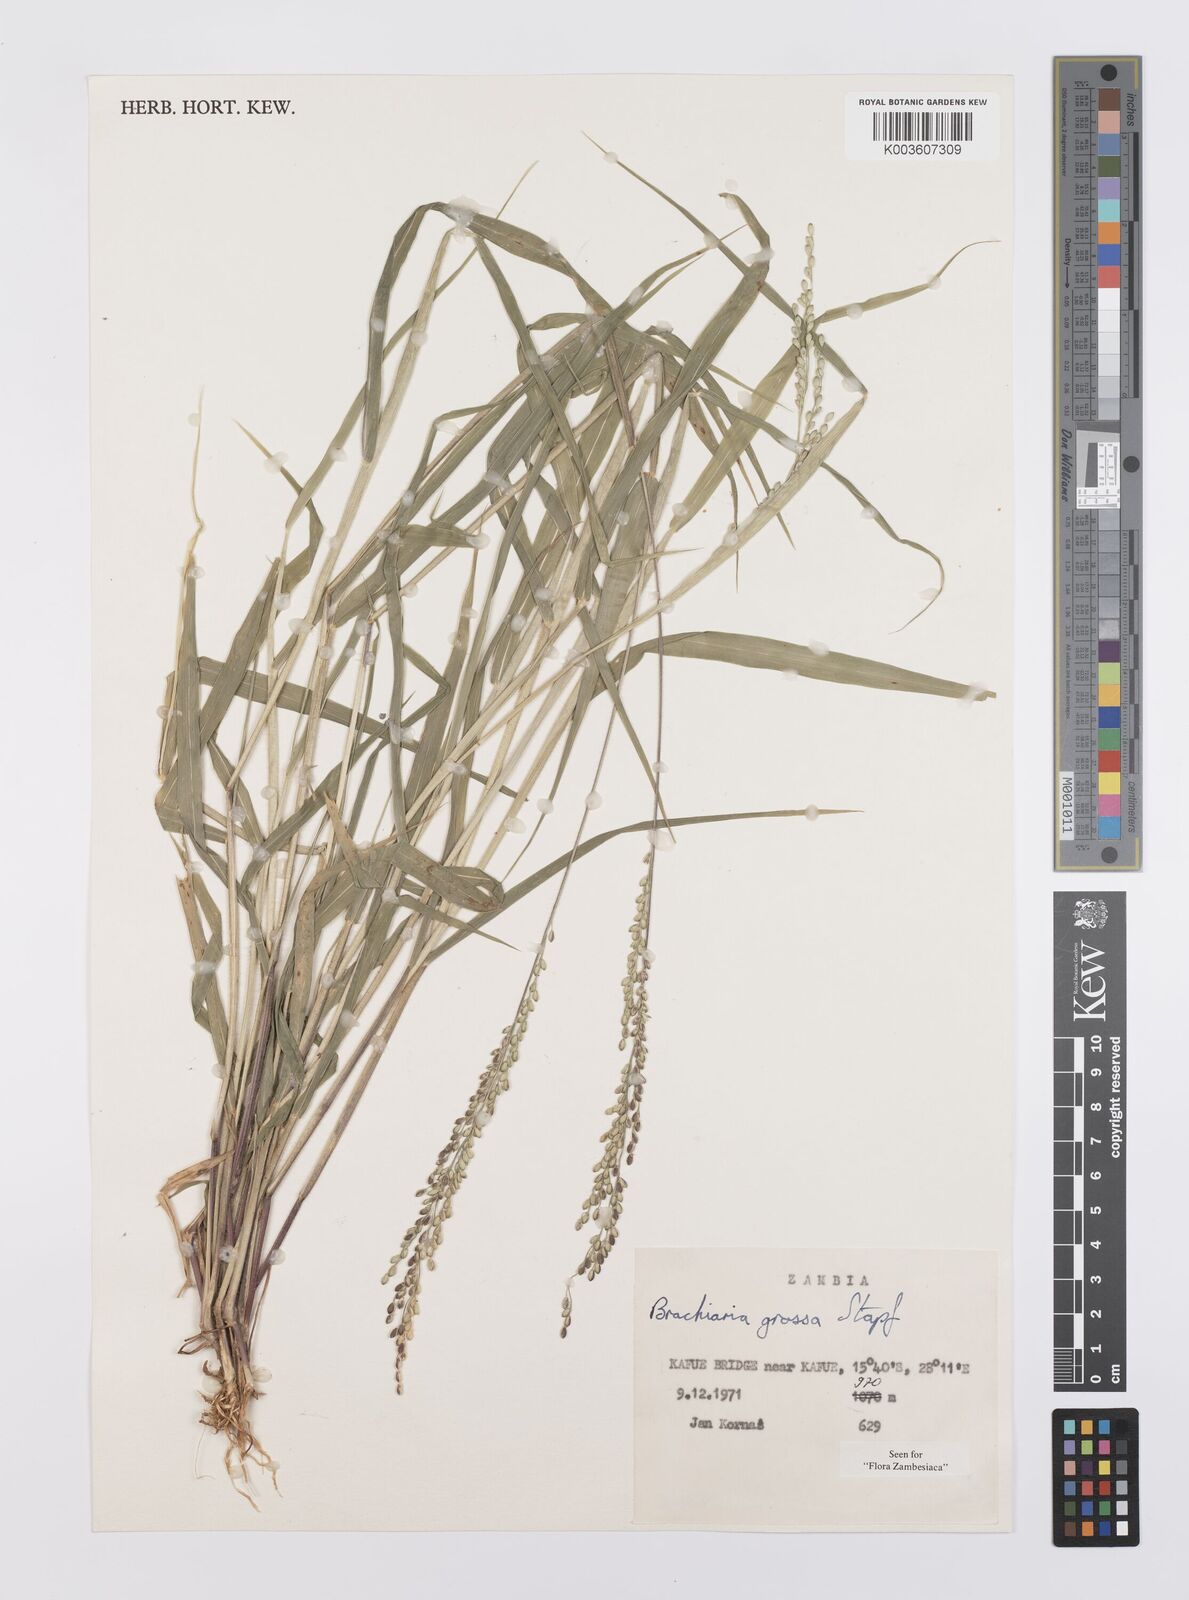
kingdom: Plantae
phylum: Tracheophyta
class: Liliopsida
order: Poales
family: Poaceae
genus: Urochloa
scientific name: Urochloa Brachiaria grossa
